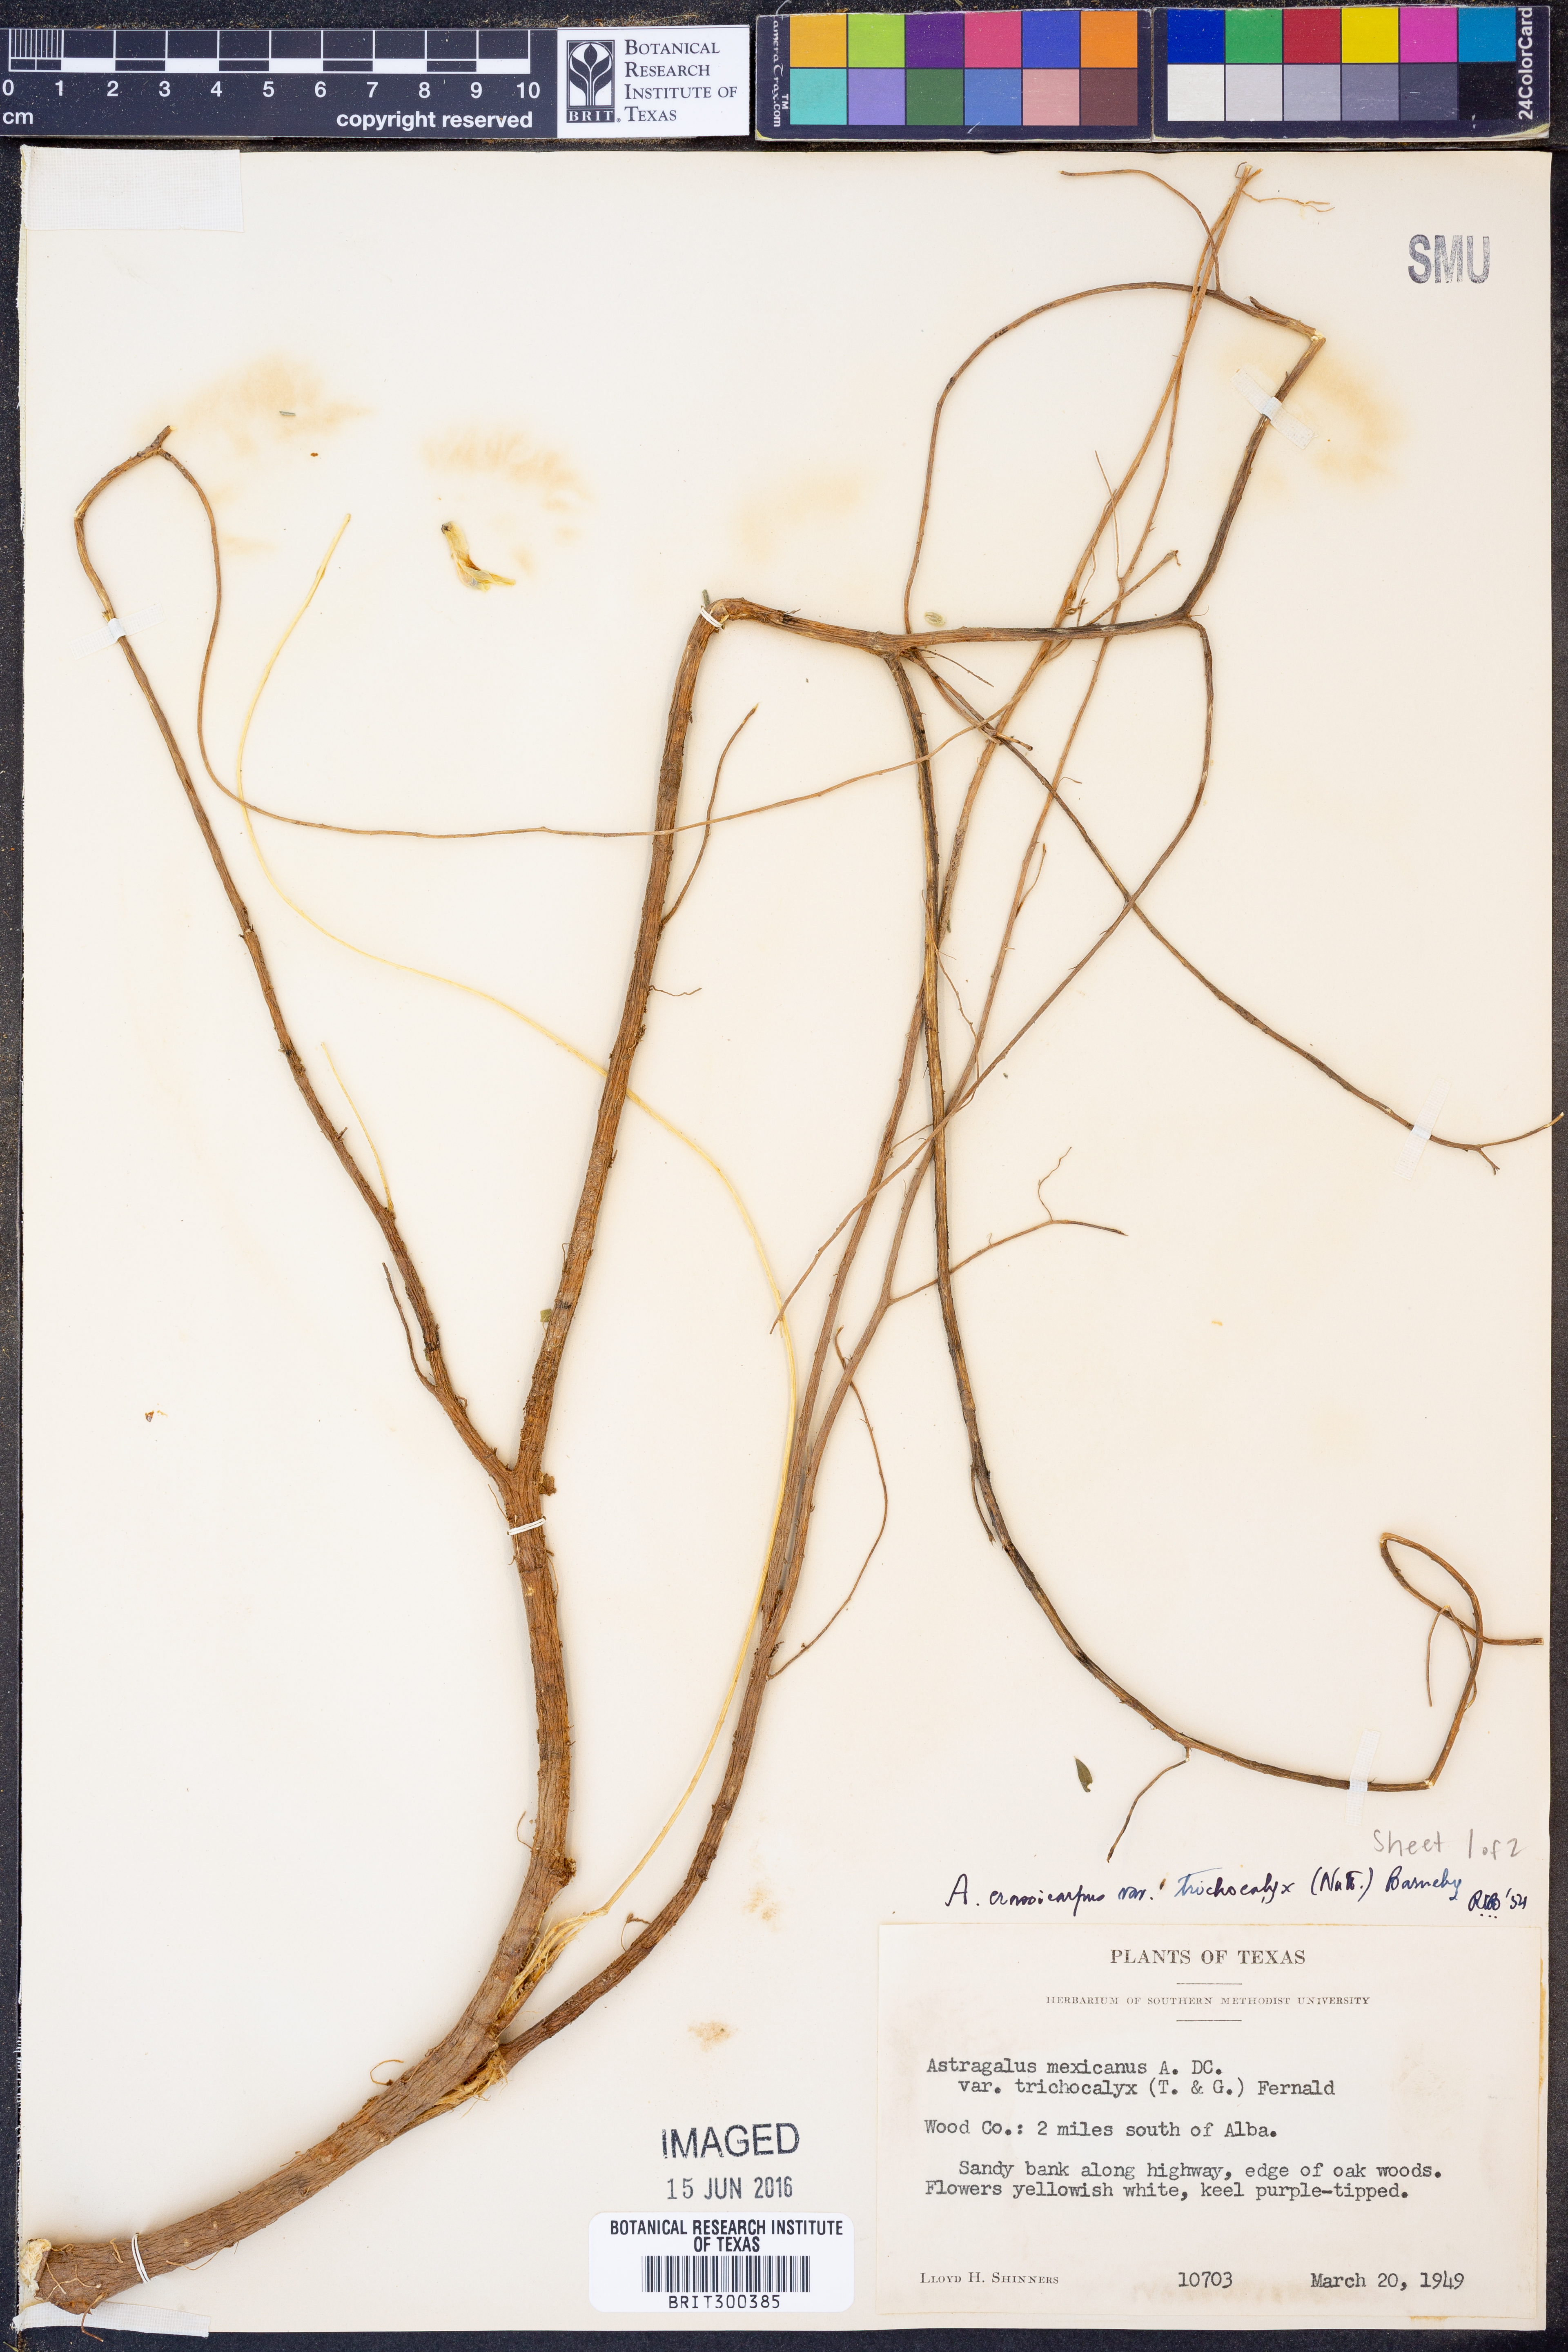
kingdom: Plantae
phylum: Tracheophyta
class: Magnoliopsida
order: Fabales
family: Fabaceae
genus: Astragalus
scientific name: Astragalus crassicarpus
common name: Ground-plum milk-vetch
